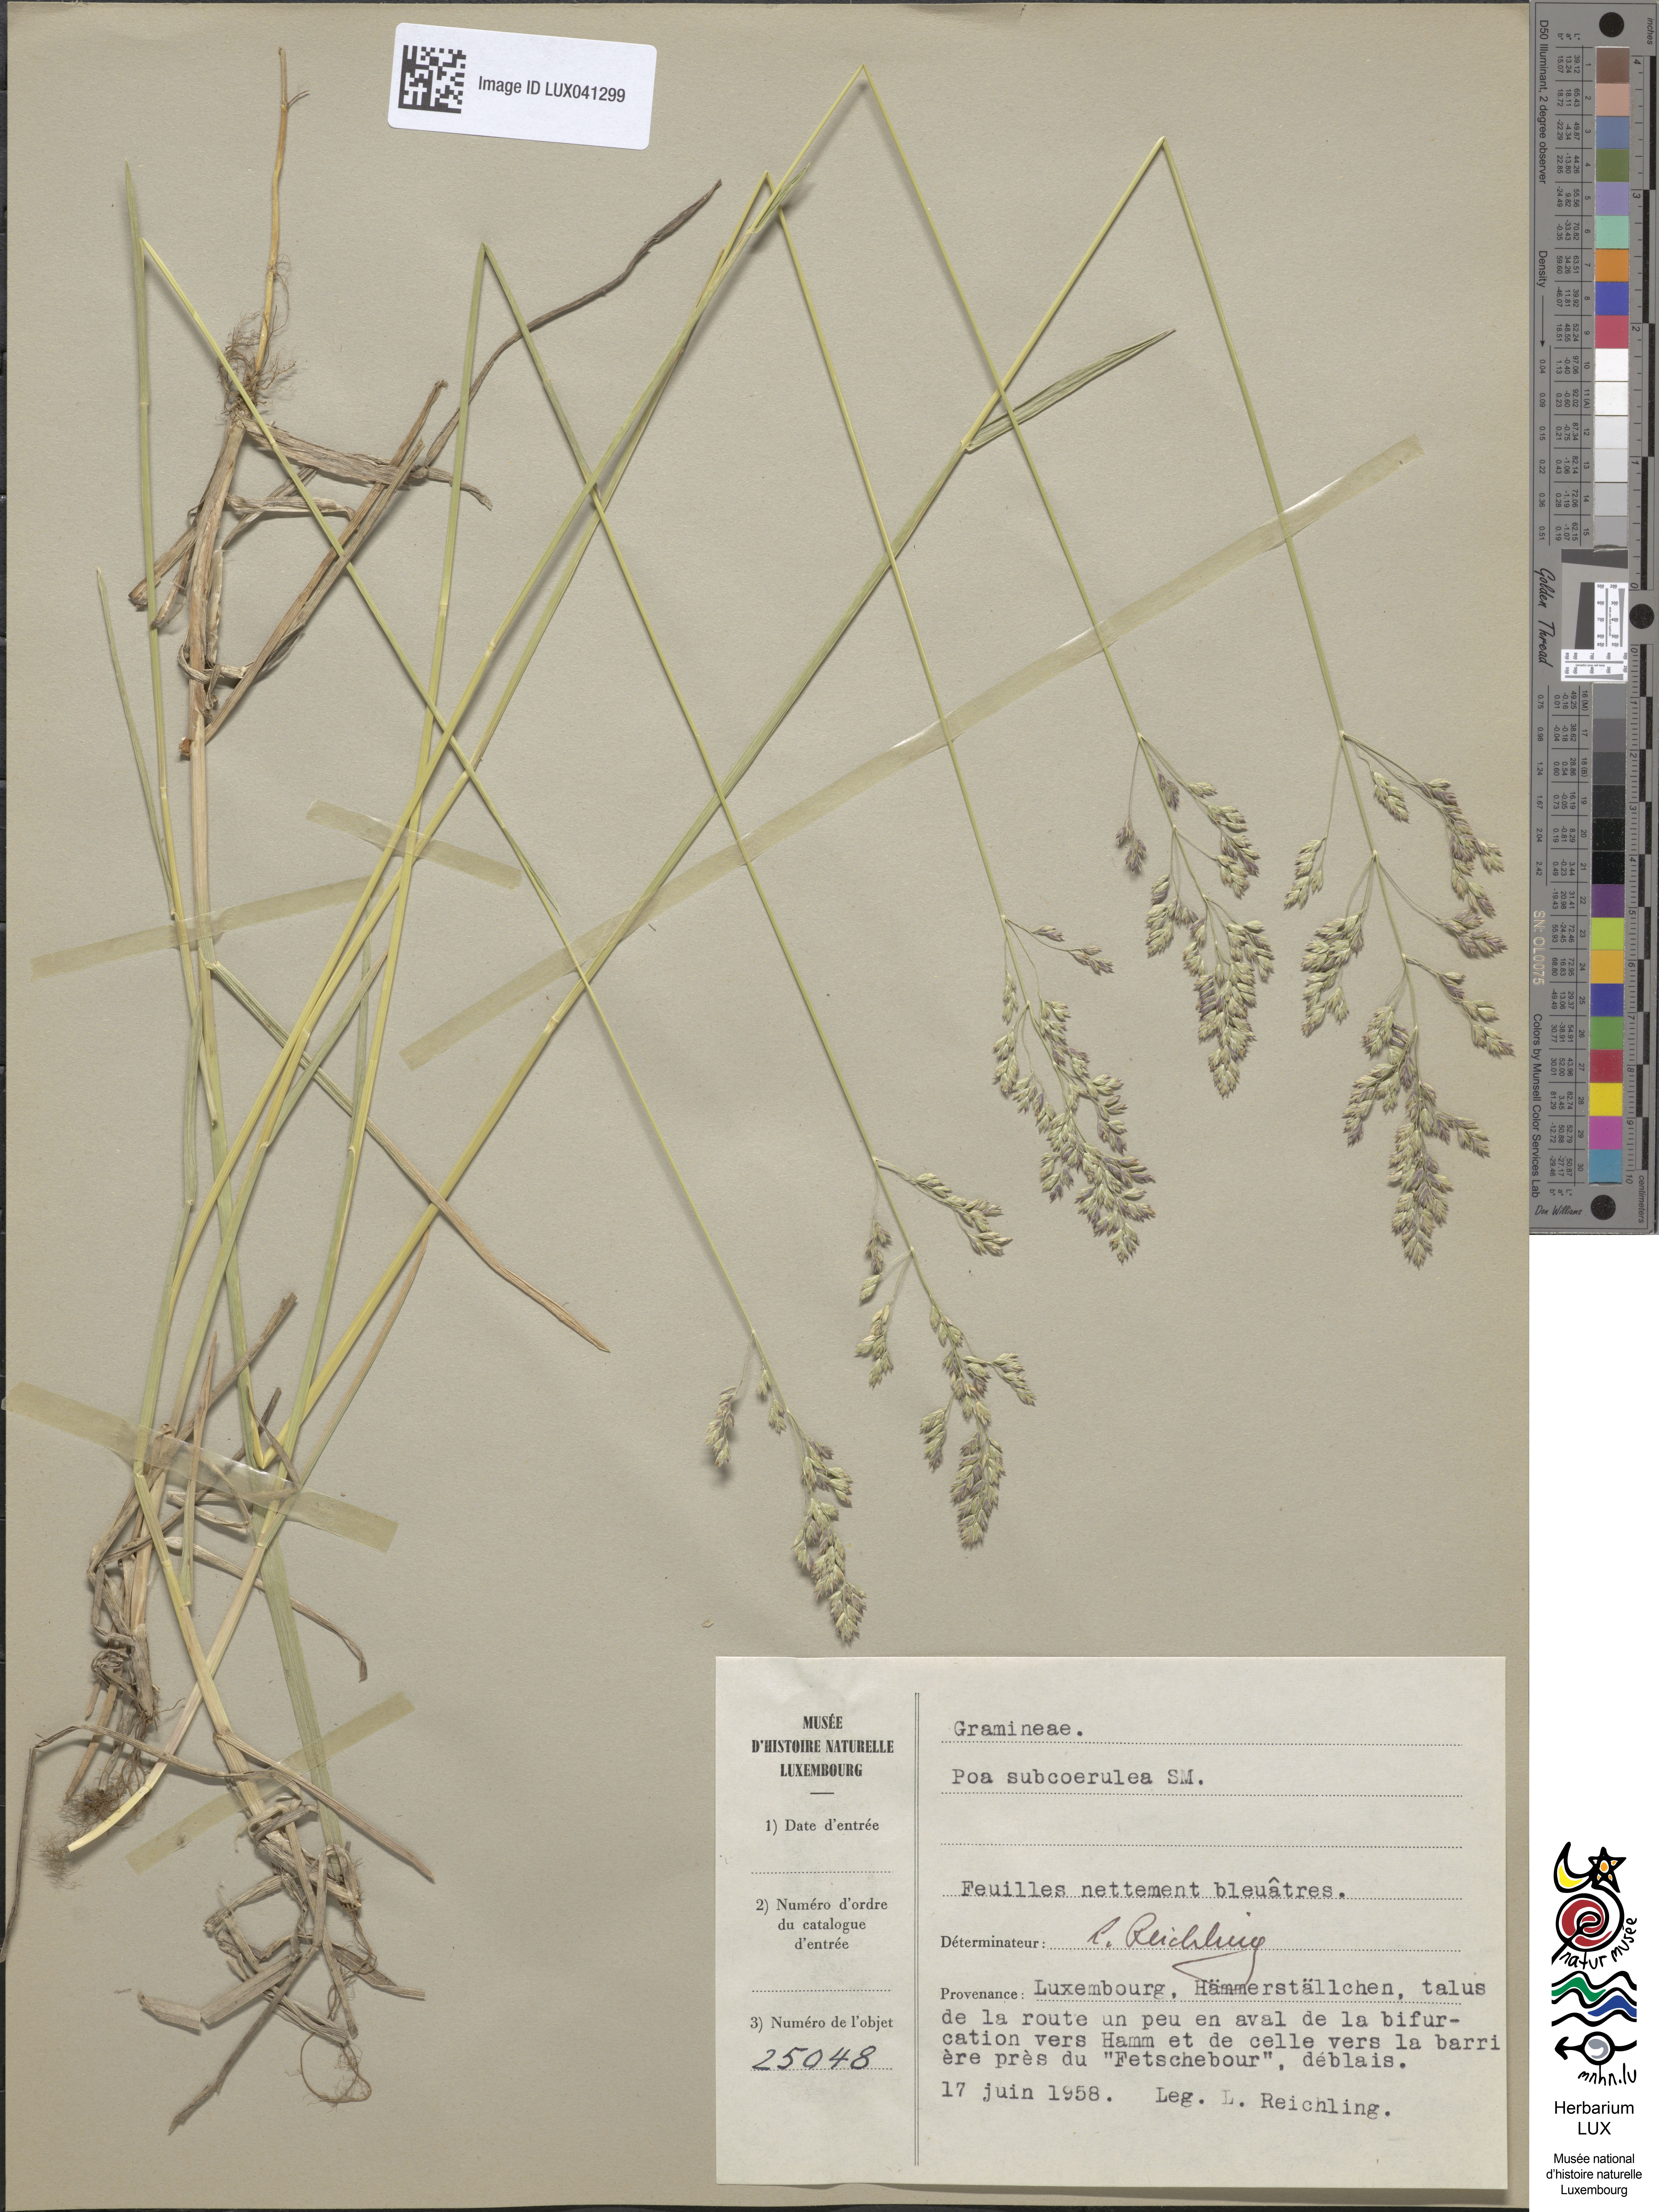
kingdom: Plantae
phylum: Tracheophyta
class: Liliopsida
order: Poales
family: Poaceae
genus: Poa
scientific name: Poa humilis
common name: Spreading meadow-grass
